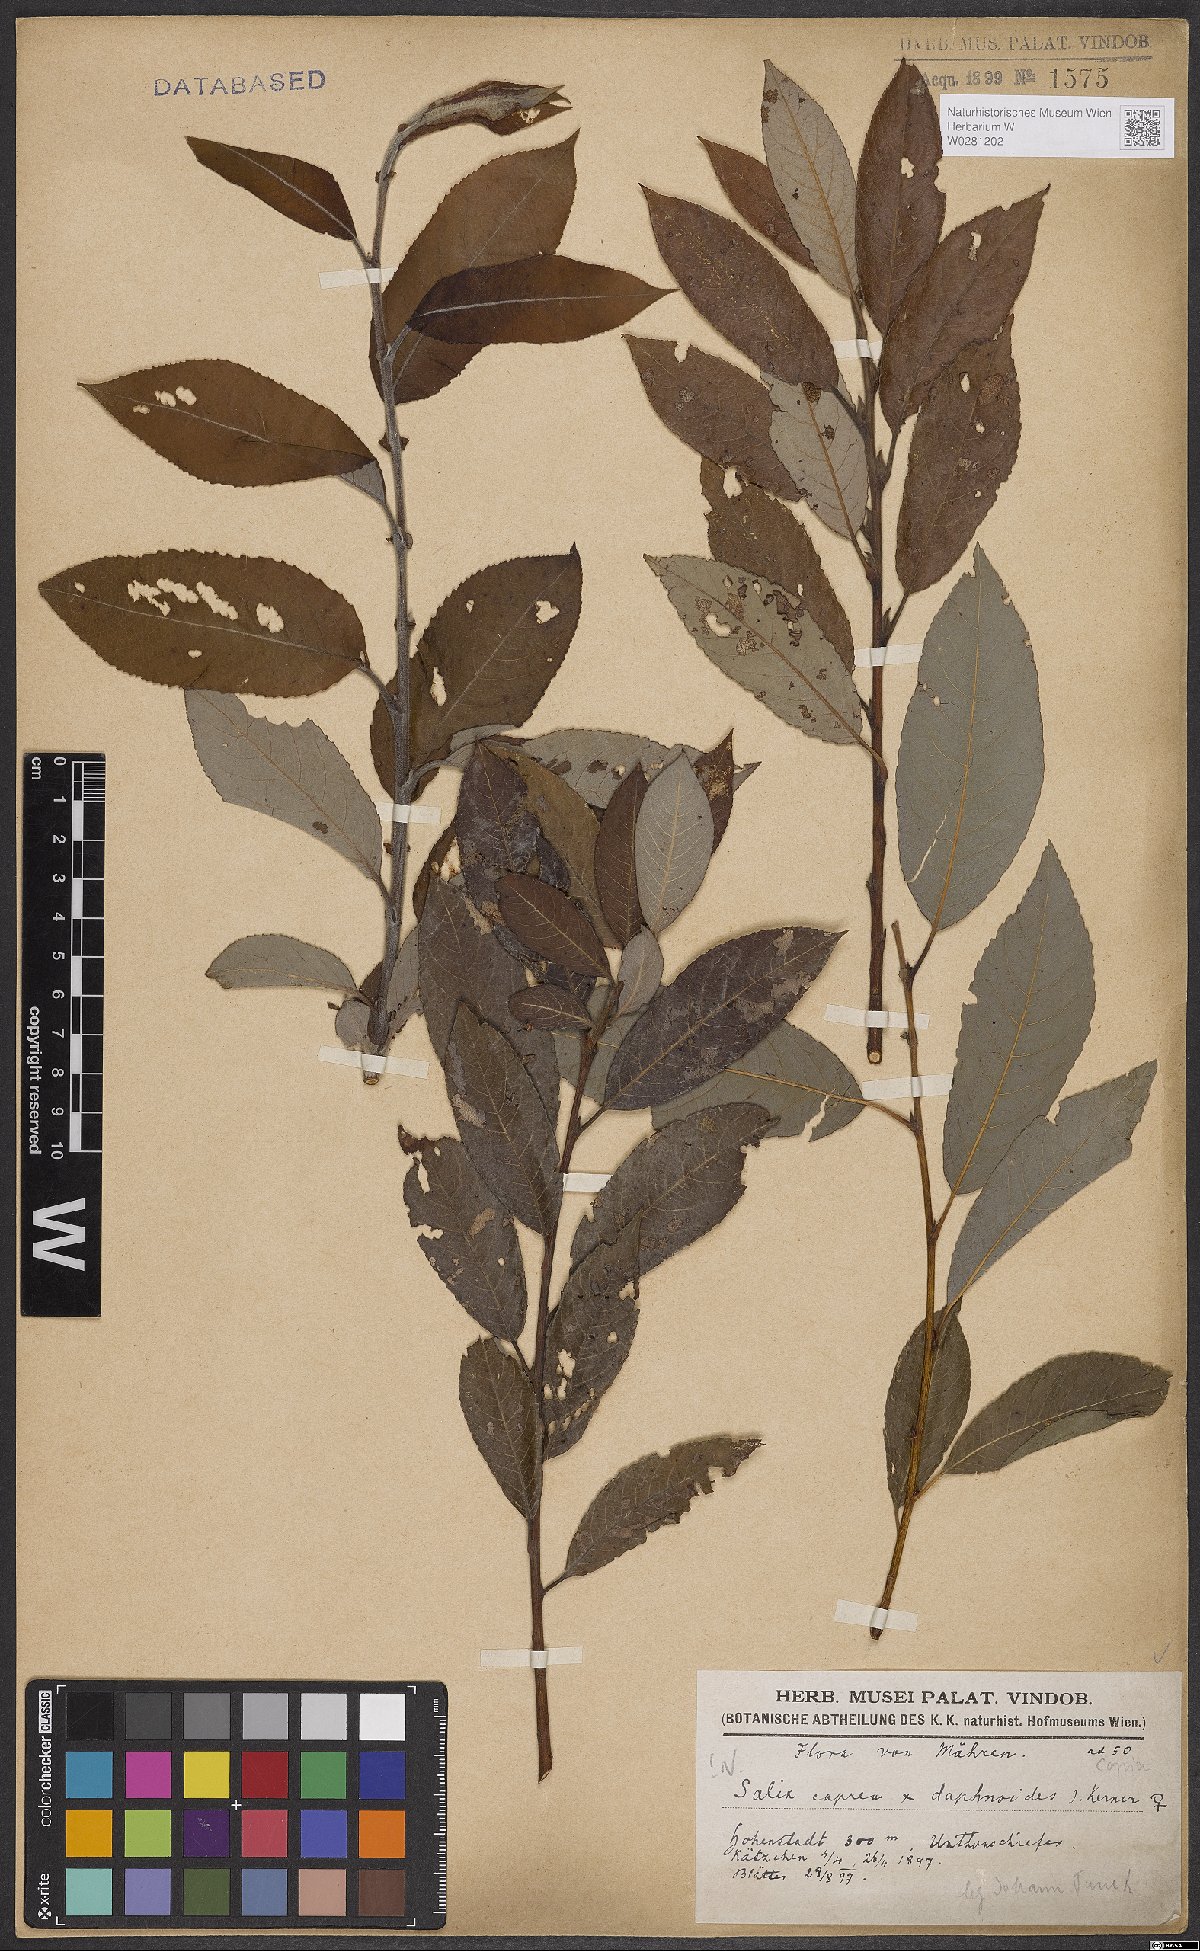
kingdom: Plantae
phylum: Tracheophyta
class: Magnoliopsida
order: Malpighiales
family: Salicaceae
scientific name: Salicaceae
